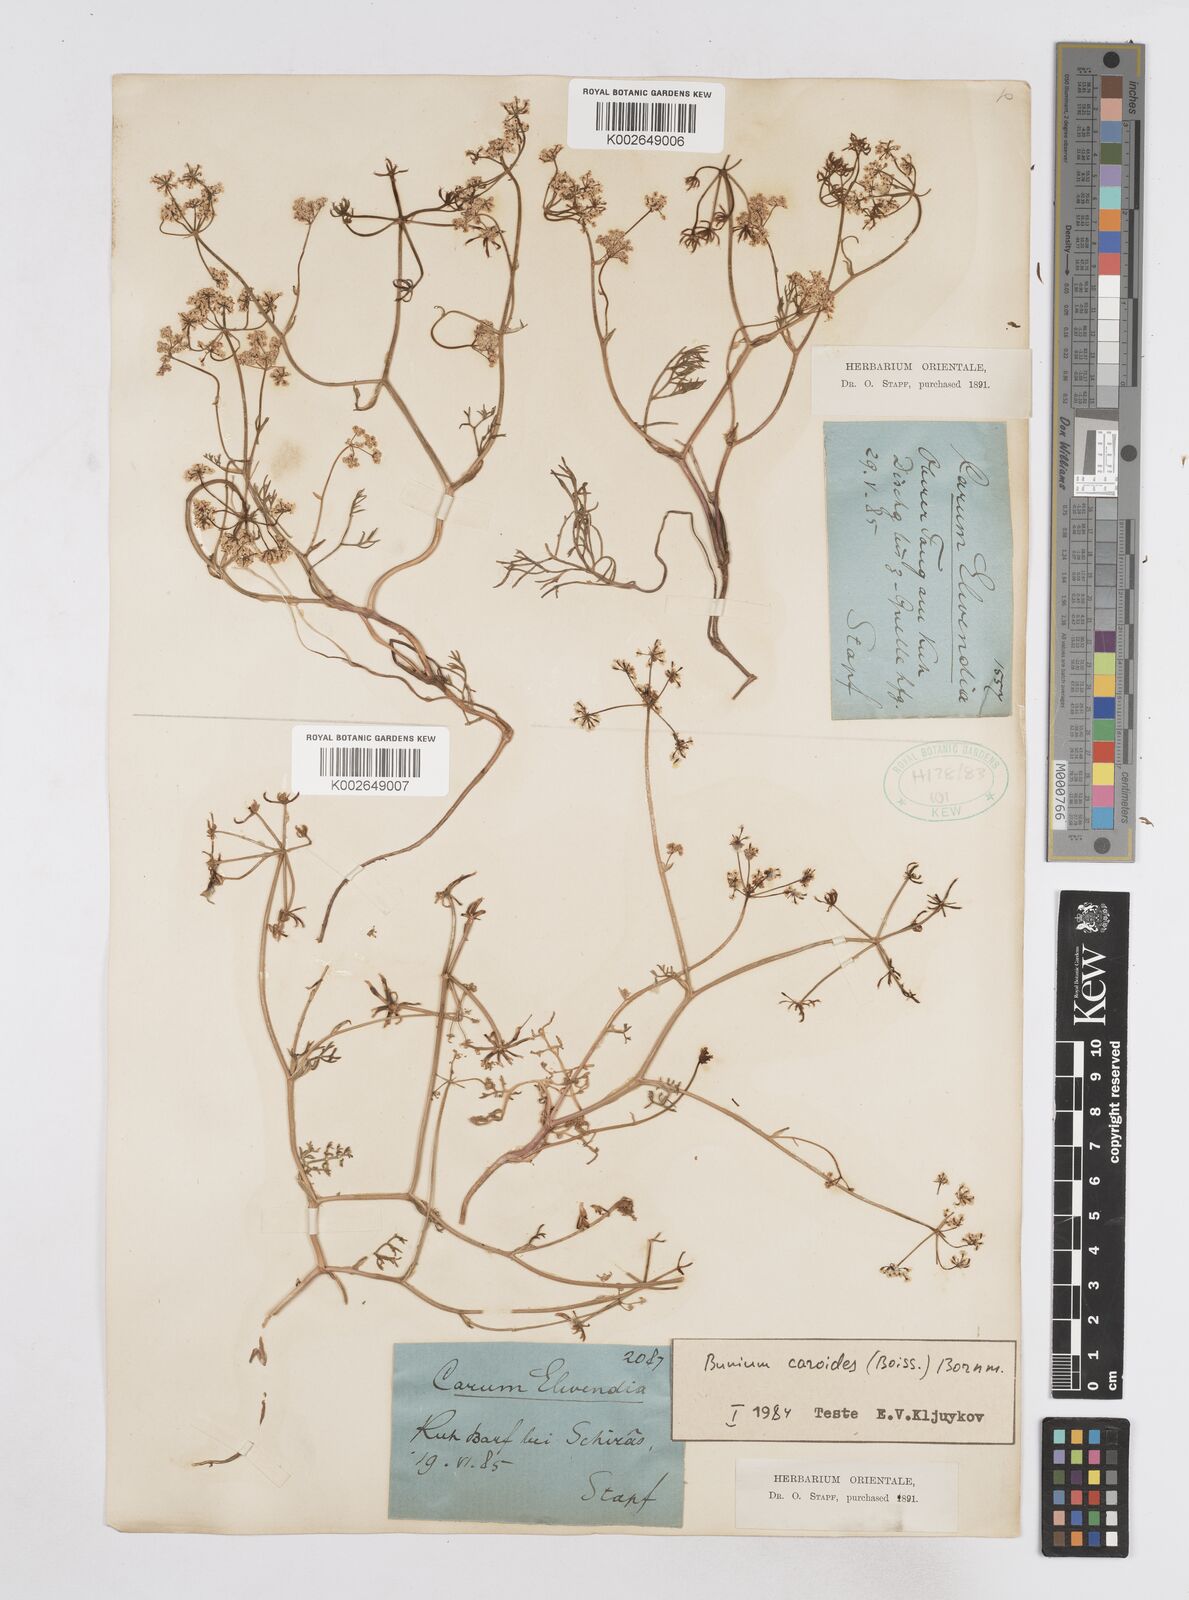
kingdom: Plantae
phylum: Tracheophyta
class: Magnoliopsida
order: Apiales
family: Apiaceae
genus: Elwendia
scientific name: Elwendia caroides
